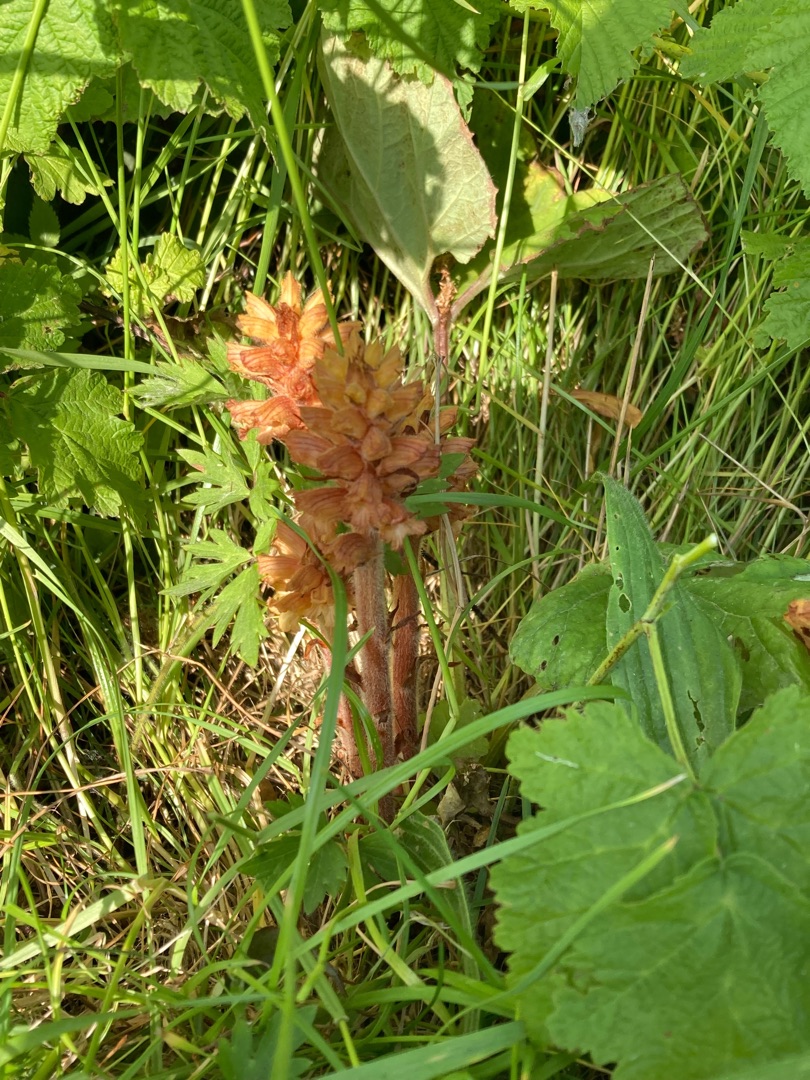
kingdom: Plantae
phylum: Tracheophyta
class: Magnoliopsida
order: Lamiales
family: Orobanchaceae
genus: Orobanche
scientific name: Orobanche flava
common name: Gul gyvelkvæler
